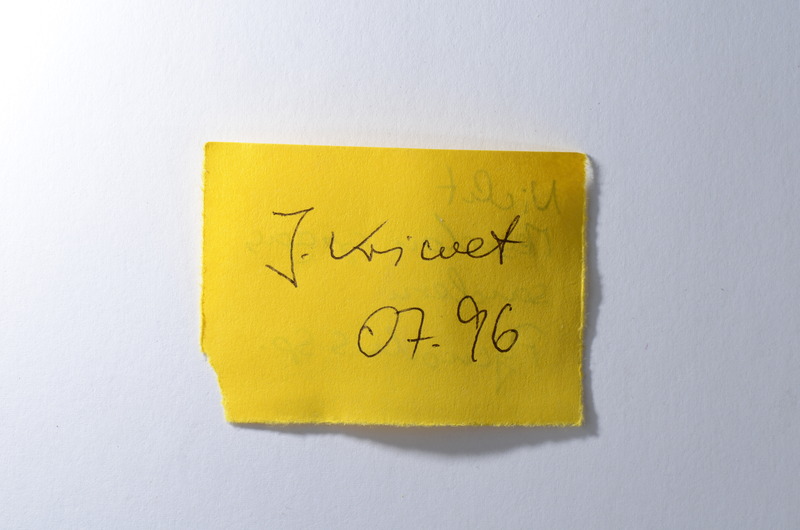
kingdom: Animalia
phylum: Chordata
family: Pycnodontidae
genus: Pycnodus
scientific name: Pycnodus gigas
